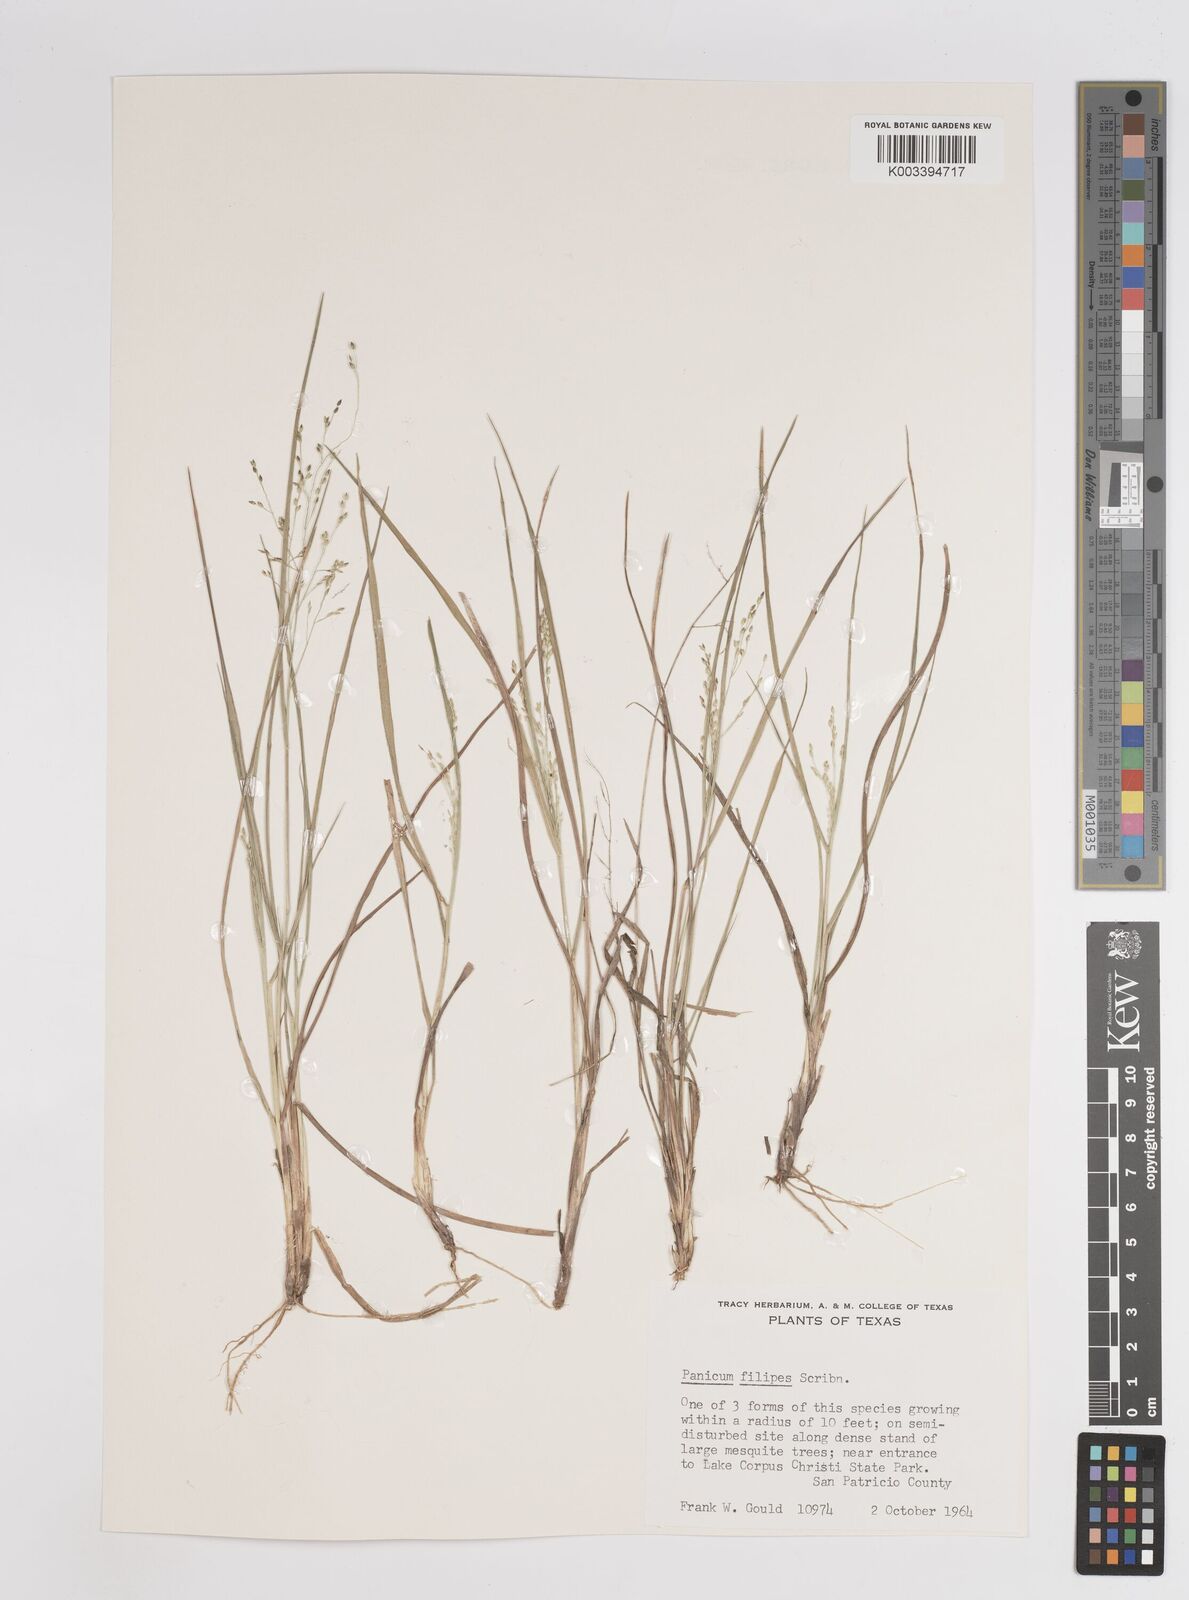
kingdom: Plantae
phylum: Tracheophyta
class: Liliopsida
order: Poales
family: Poaceae
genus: Panicum
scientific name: Panicum hallii
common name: Hall's witchgrass
